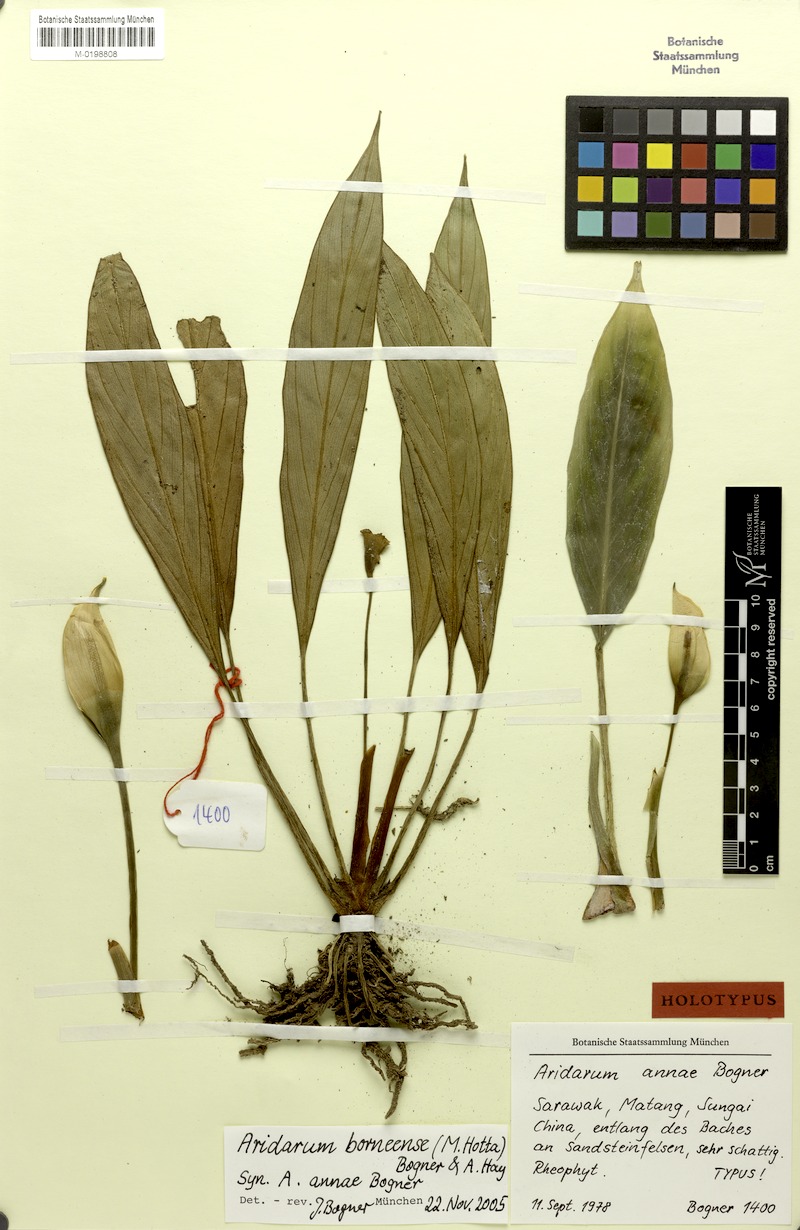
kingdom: Plantae
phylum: Tracheophyta
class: Liliopsida
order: Alismatales
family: Araceae
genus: Heteroaridarum
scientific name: Heteroaridarum borneense
